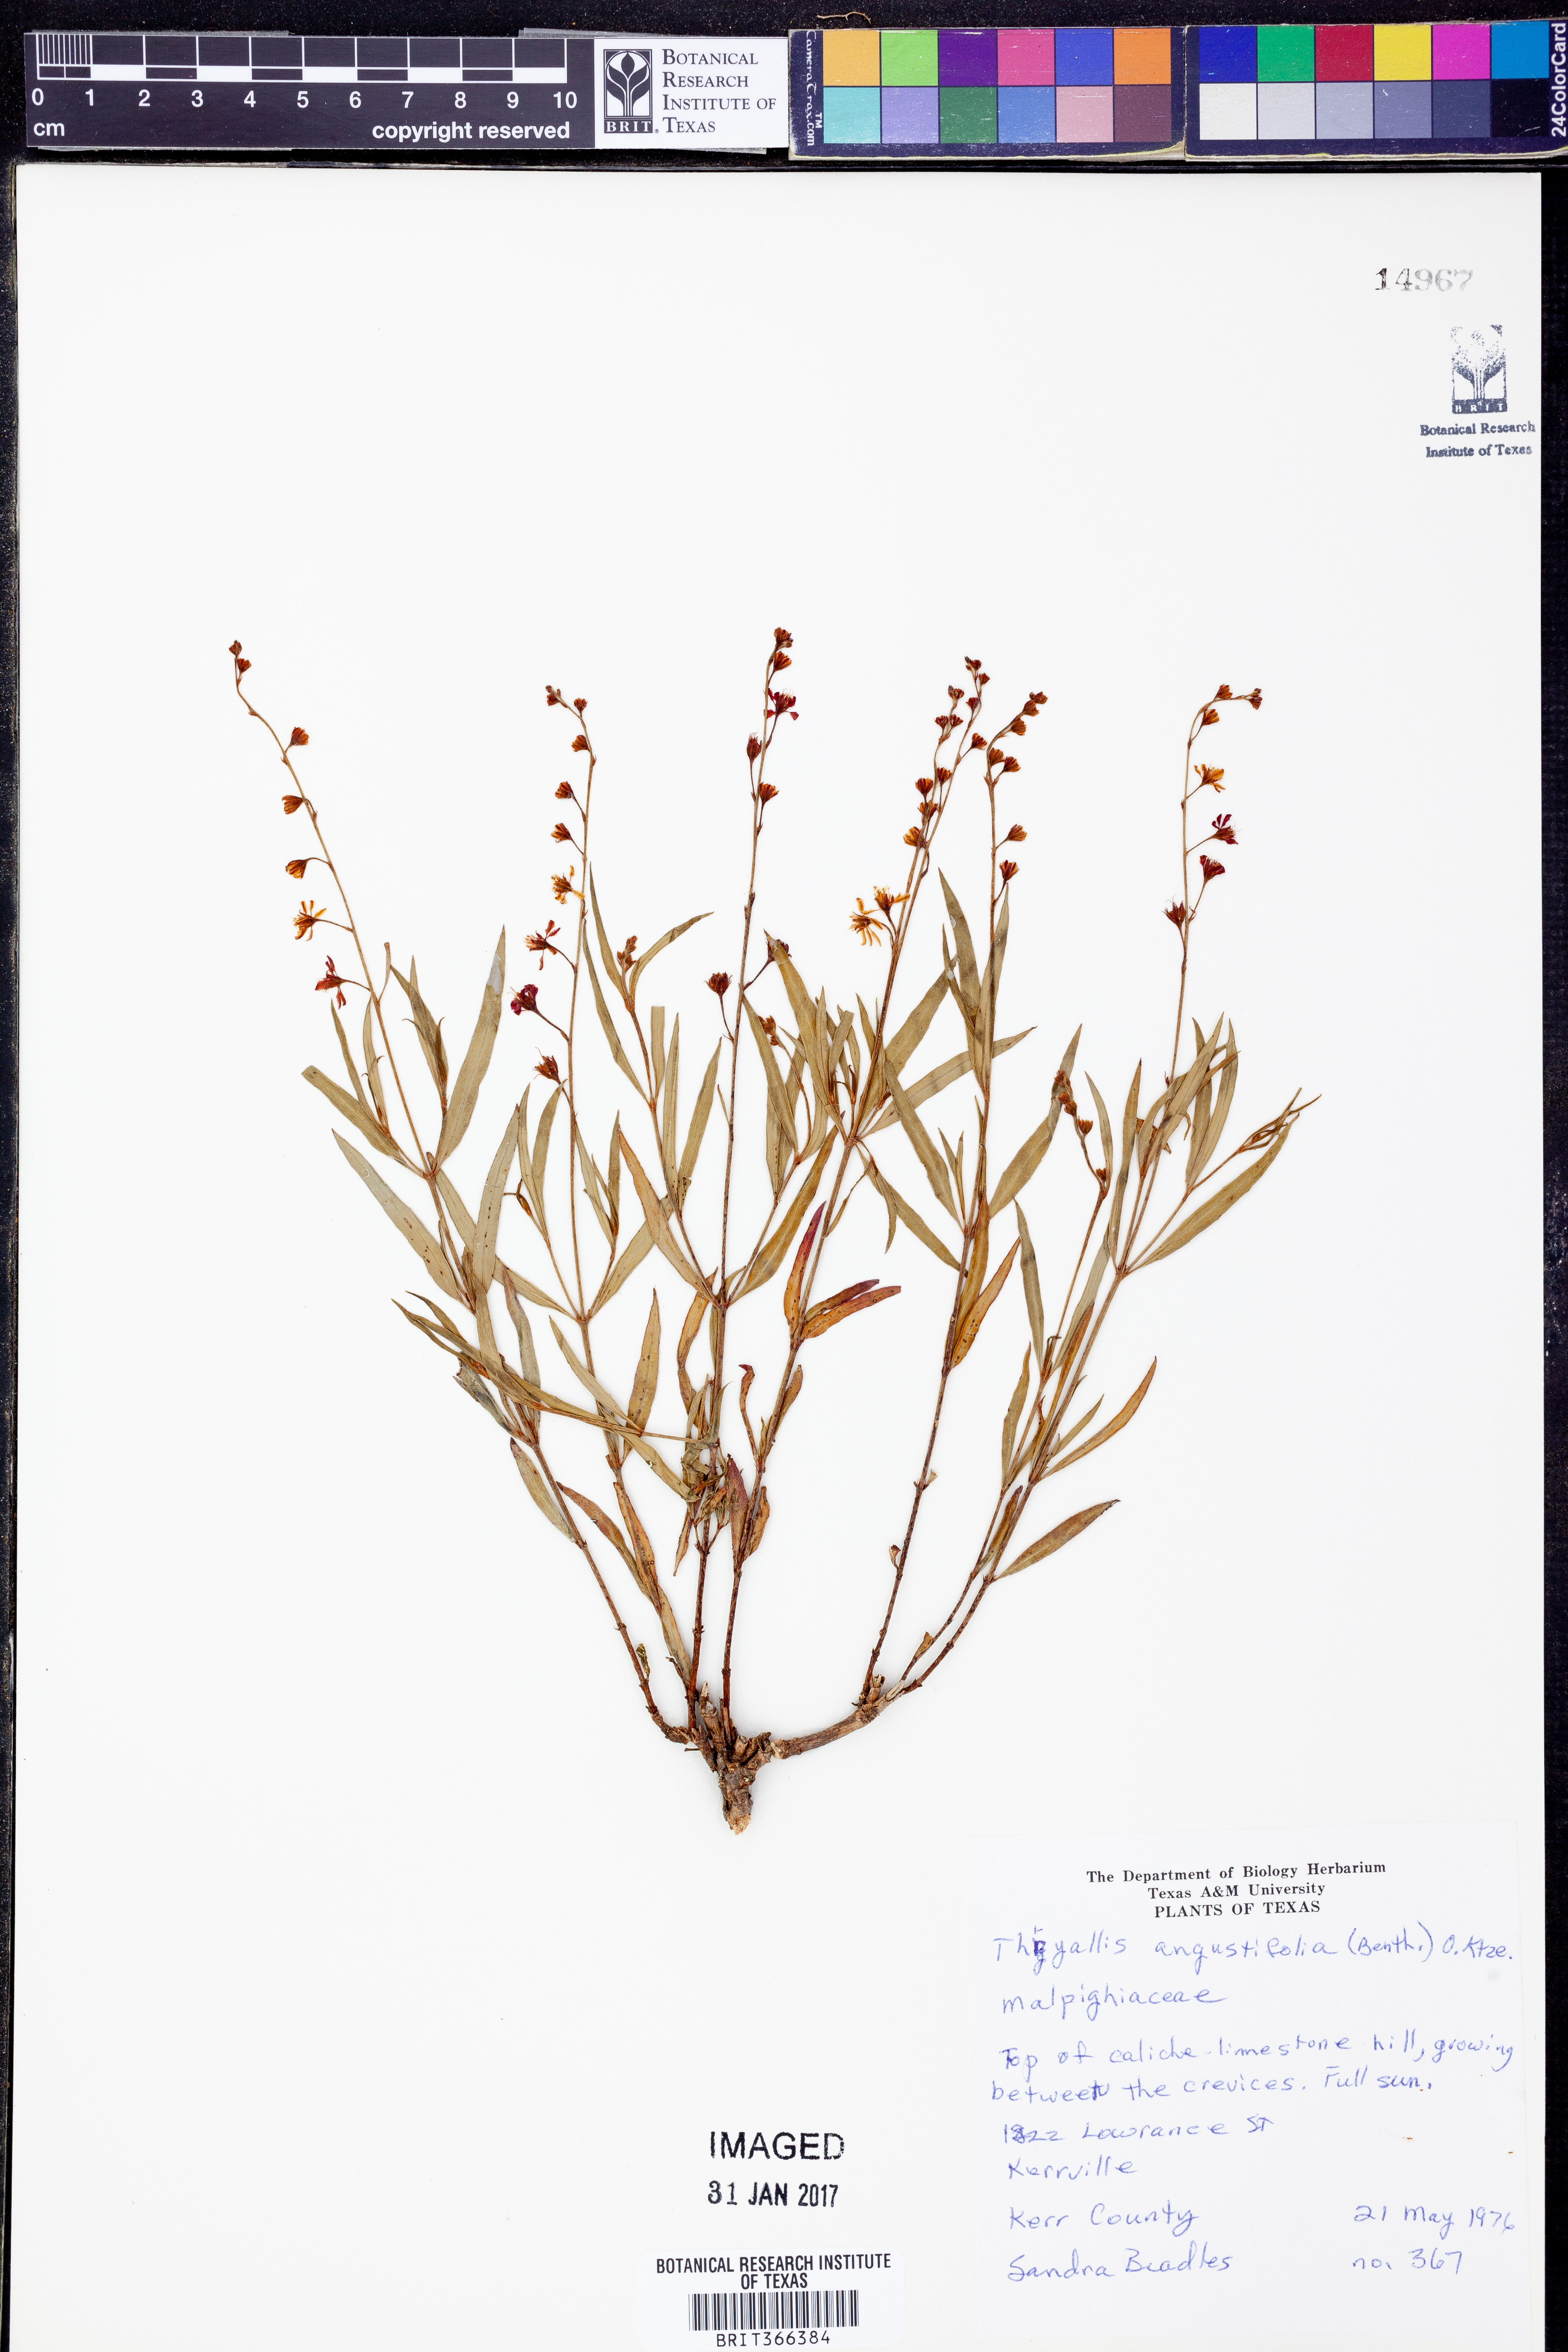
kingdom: Plantae
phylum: Tracheophyta
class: Magnoliopsida
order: Malpighiales
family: Malpighiaceae
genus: Galphimia
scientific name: Galphimia angustifolia
